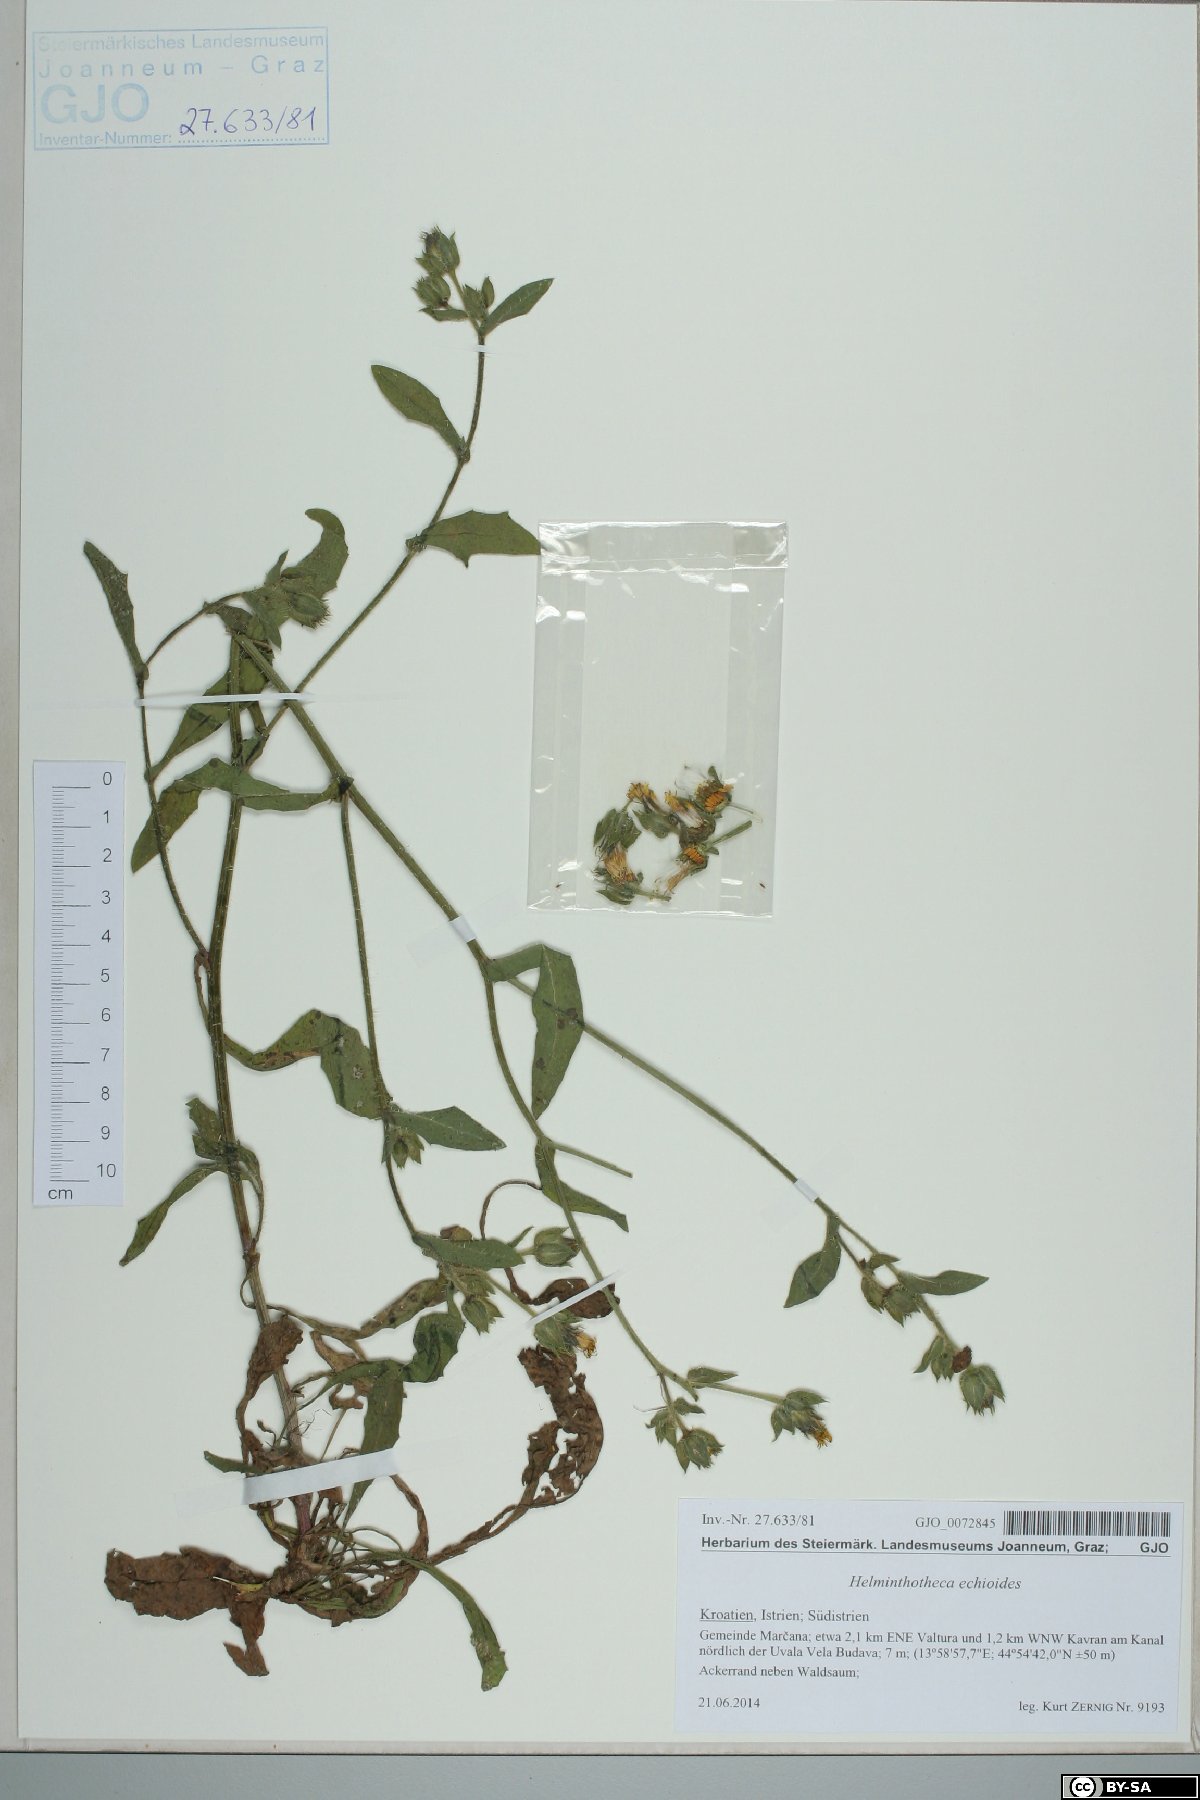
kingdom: Plantae
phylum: Tracheophyta
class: Magnoliopsida
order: Asterales
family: Asteraceae
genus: Helminthotheca
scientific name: Helminthotheca echioides
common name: Ox-tongue
